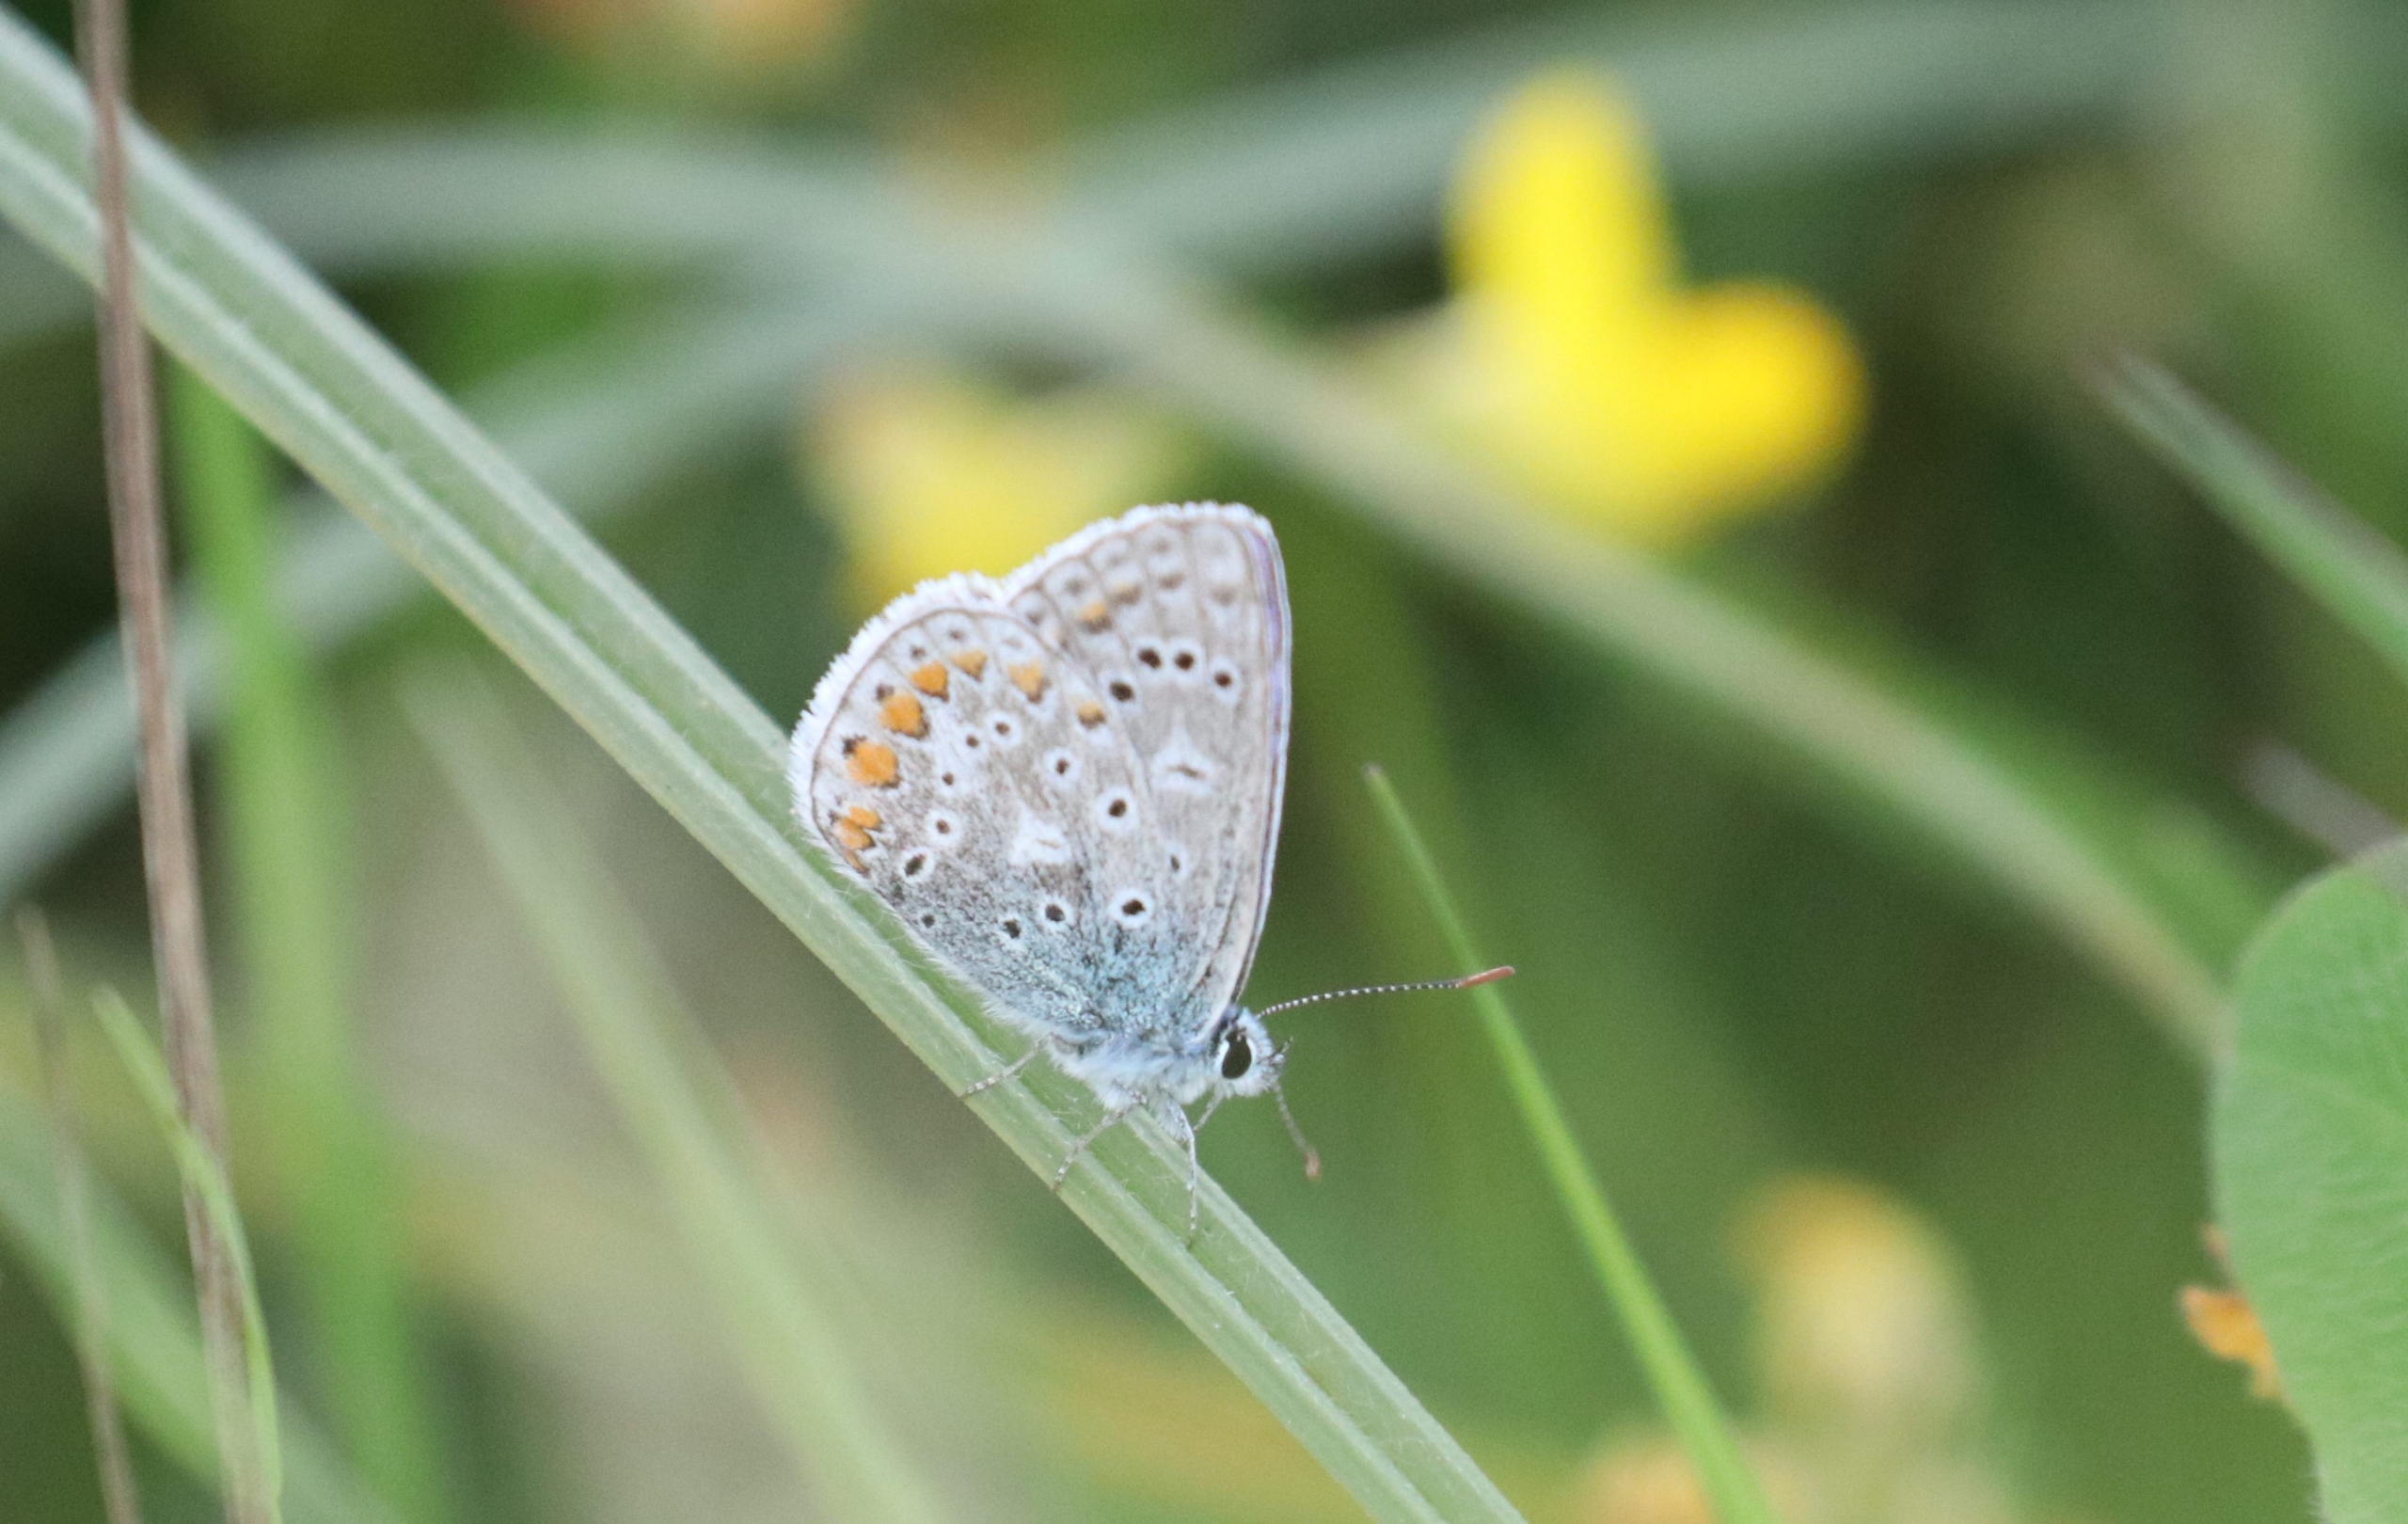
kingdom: Animalia
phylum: Arthropoda
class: Insecta
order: Lepidoptera
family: Lycaenidae
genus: Polyommatus
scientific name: Polyommatus icarus
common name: Almindelig blåfugl
